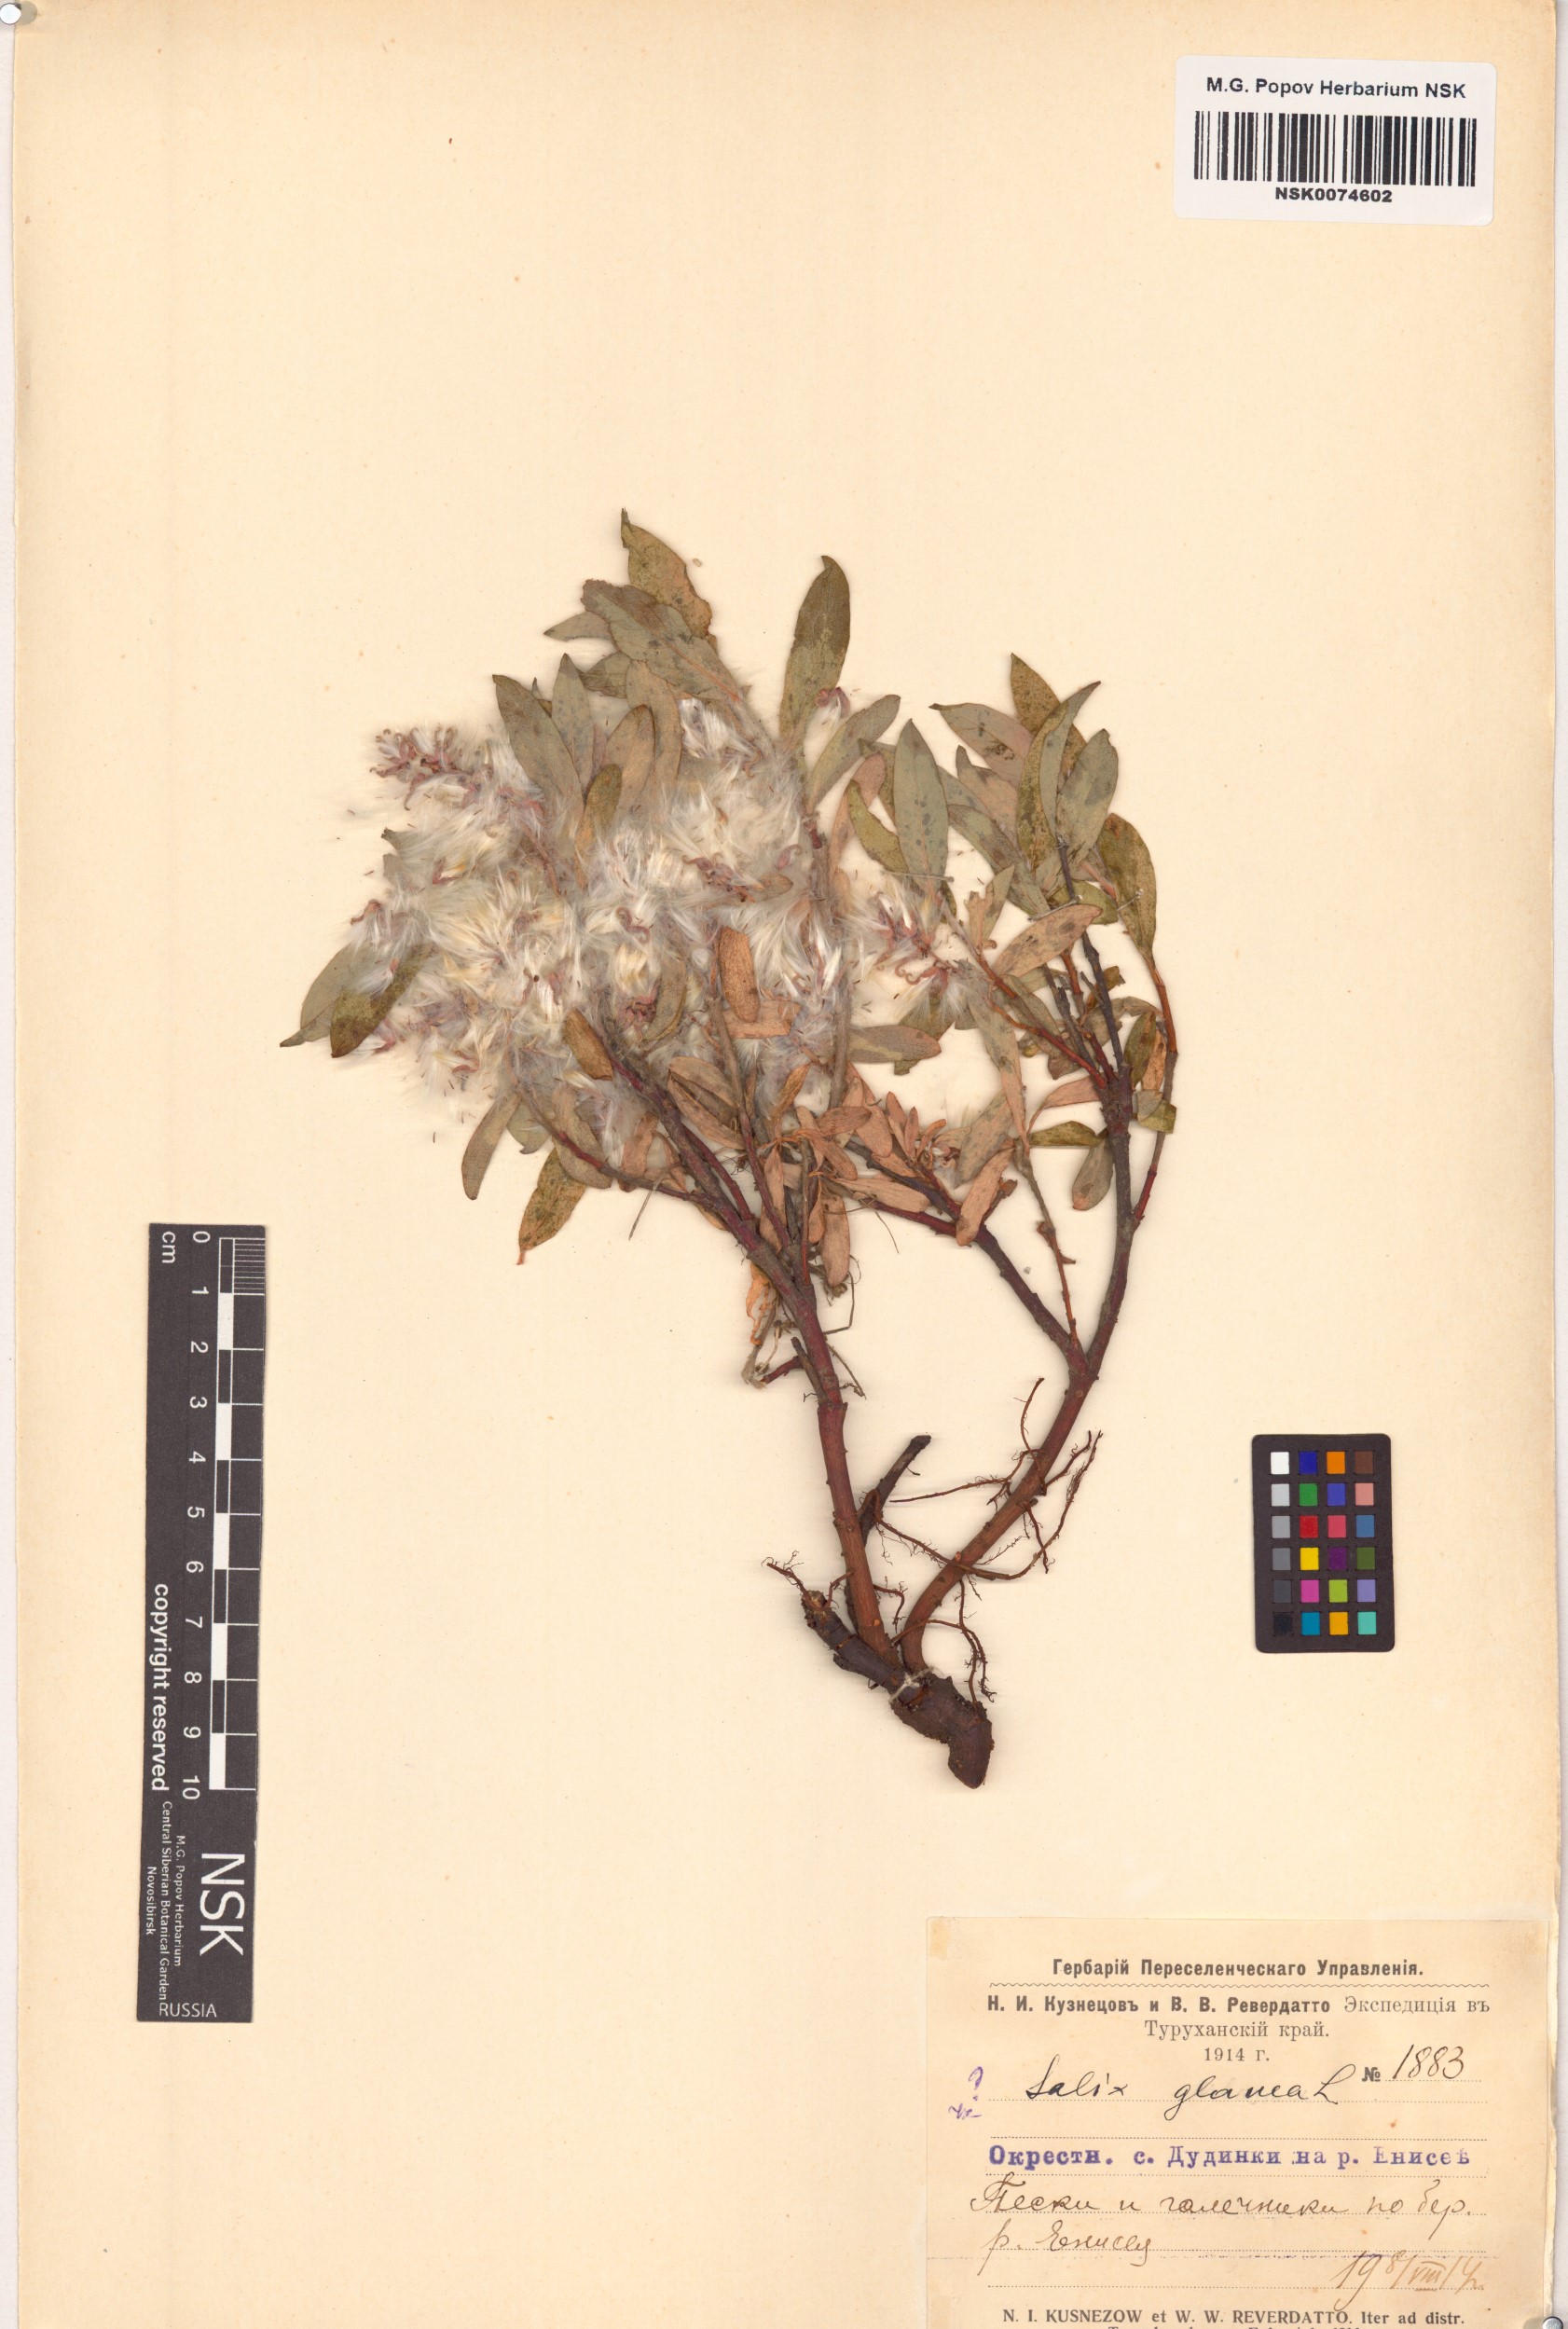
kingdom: Plantae
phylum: Tracheophyta
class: Magnoliopsida
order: Malpighiales
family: Salicaceae
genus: Salix
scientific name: Salix glauca
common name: Glaucous willow
